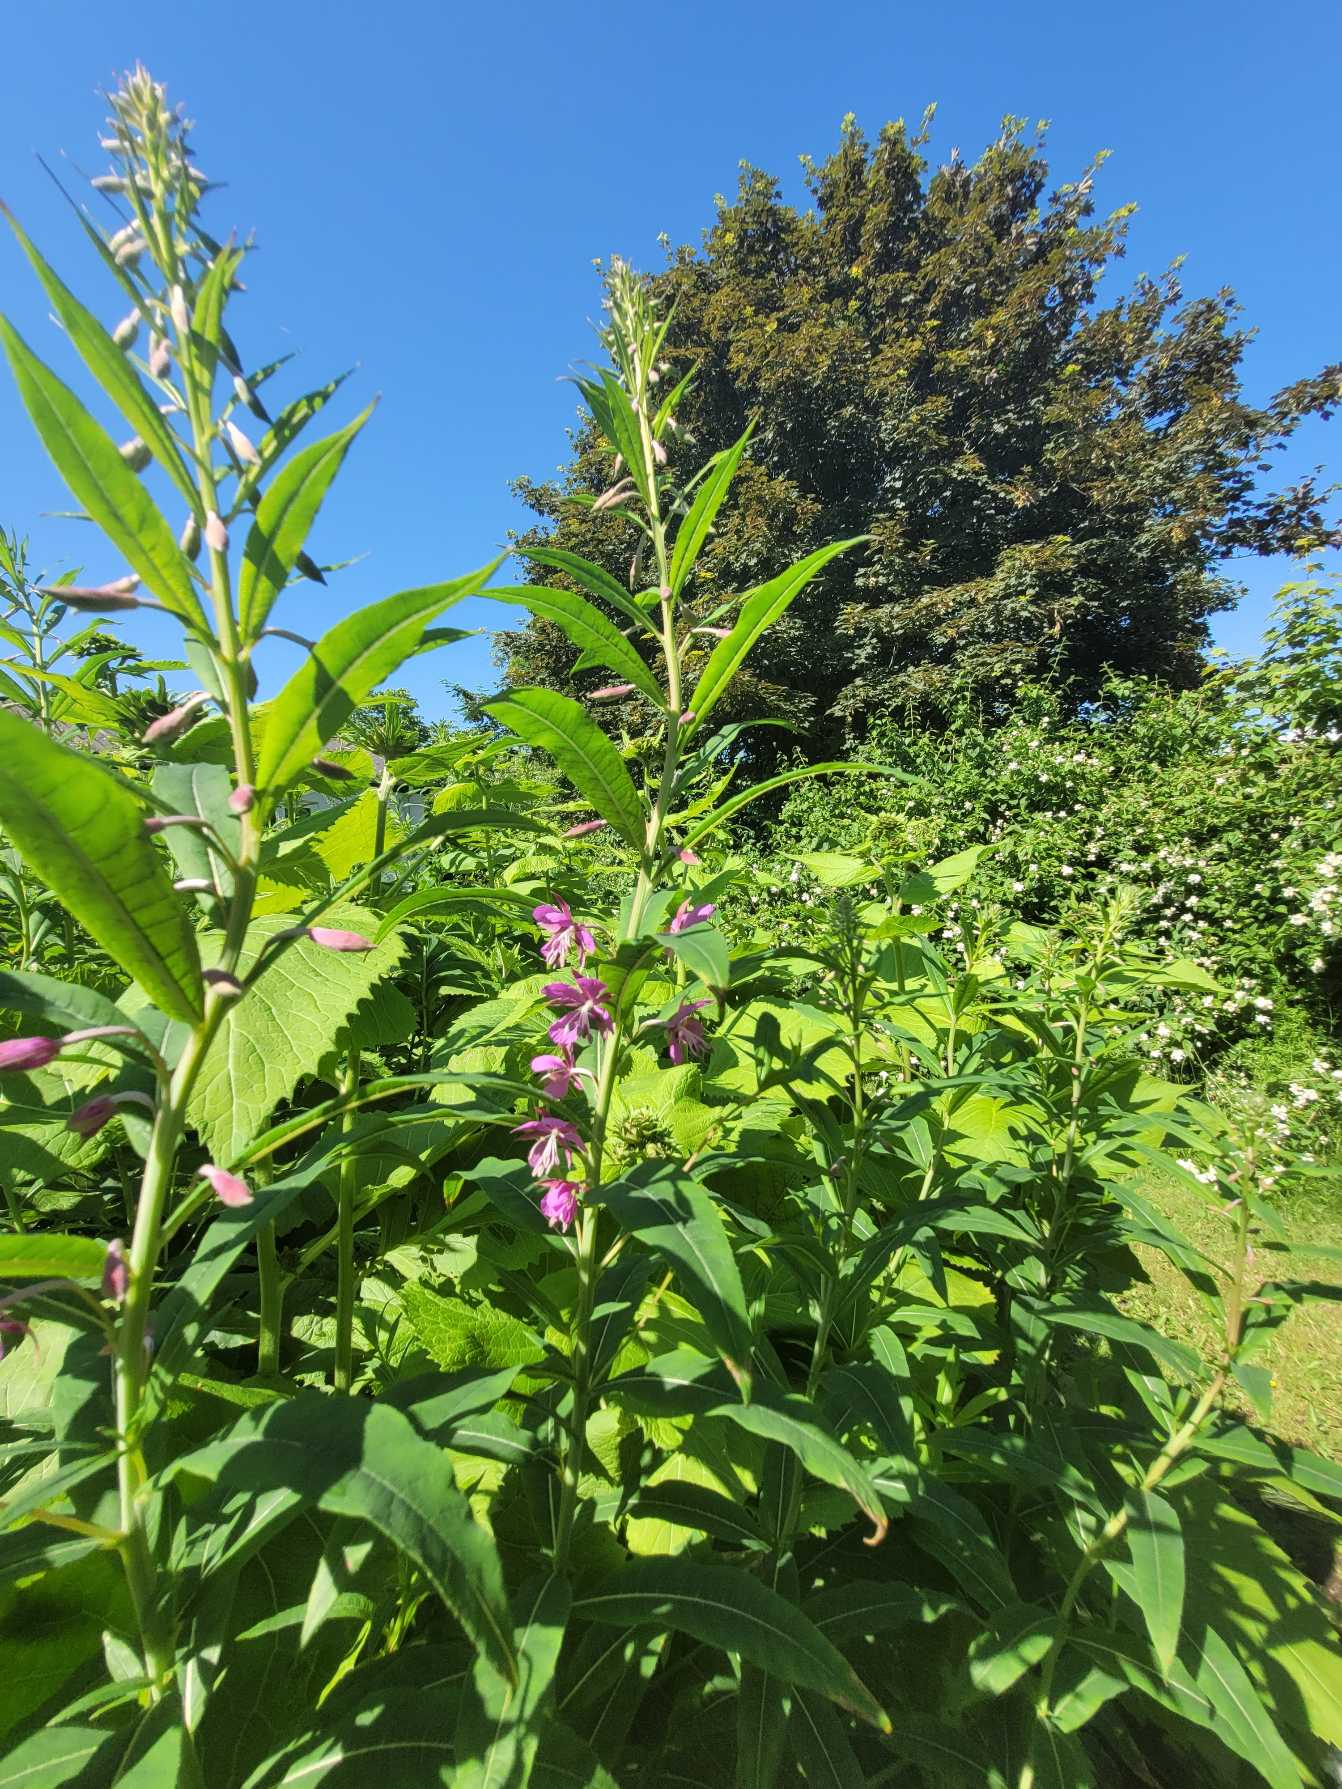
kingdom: Plantae
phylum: Tracheophyta
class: Magnoliopsida
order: Myrtales
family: Onagraceae
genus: Chamaenerion
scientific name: Chamaenerion angustifolium
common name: Gederams
